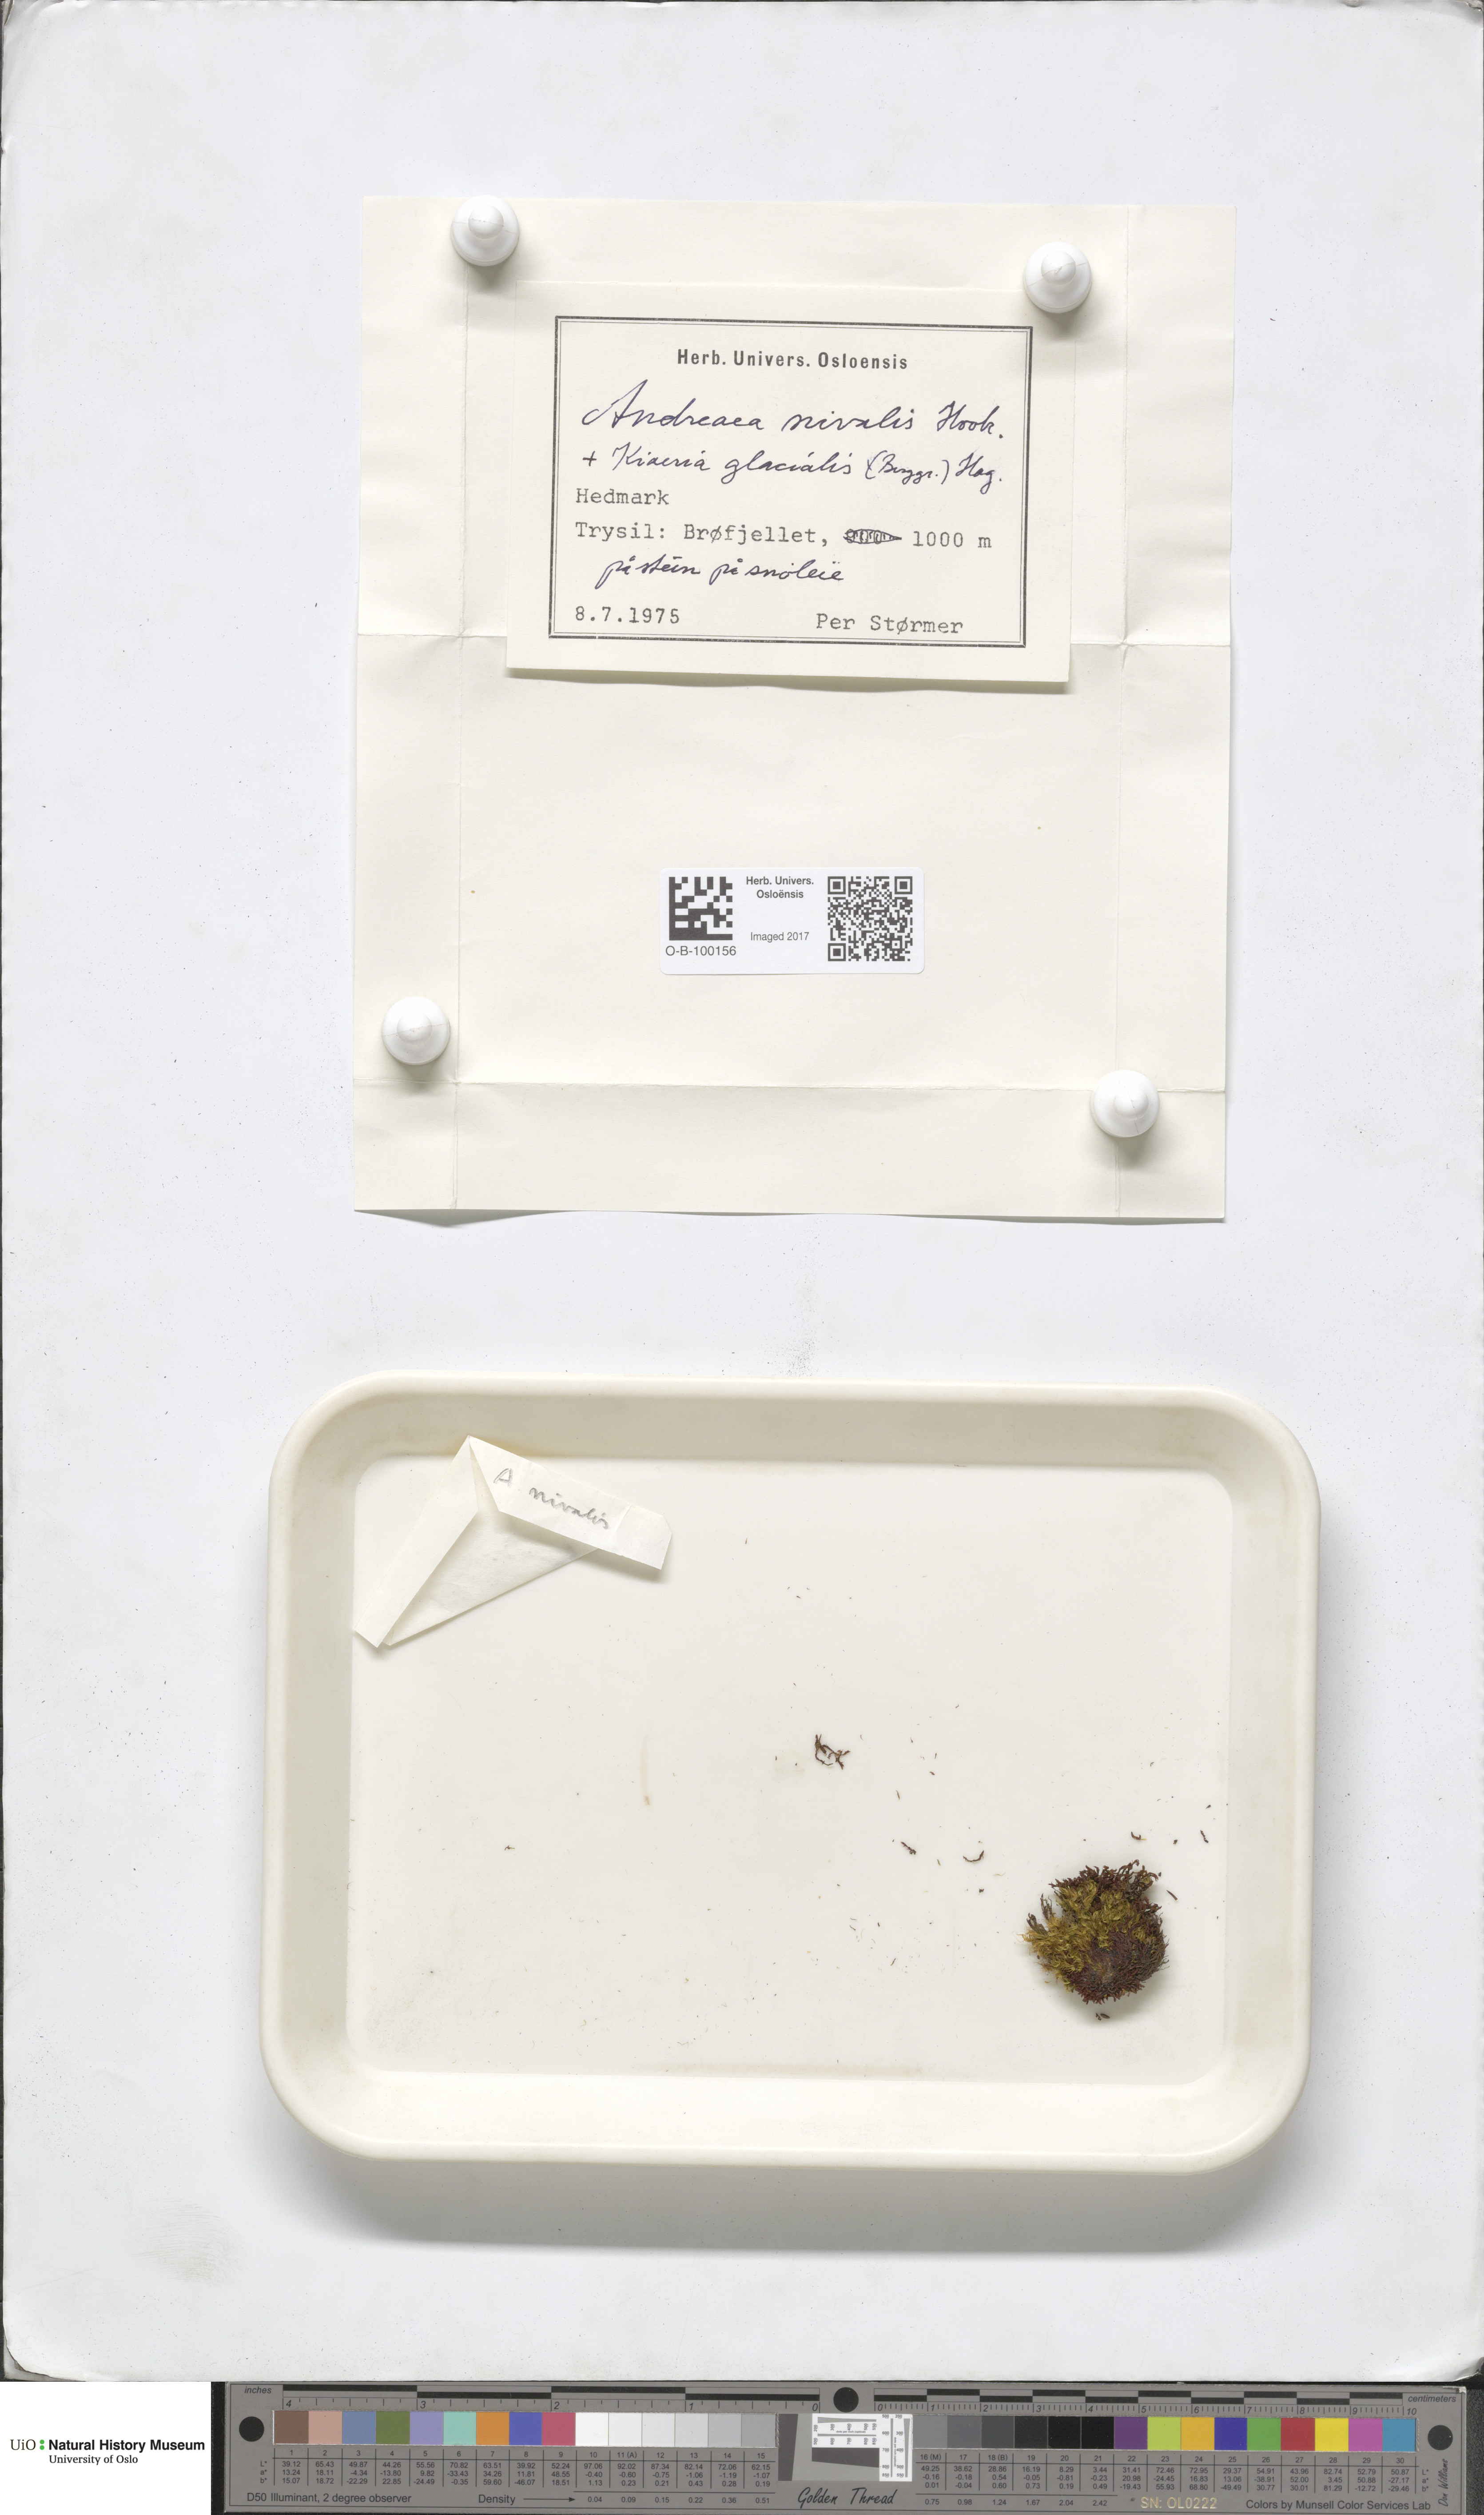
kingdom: Plantae
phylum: Bryophyta
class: Andreaeopsida
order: Andreaeales
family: Andreaeaceae
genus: Andreaea
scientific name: Andreaea nivalis
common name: Snow rock moss
